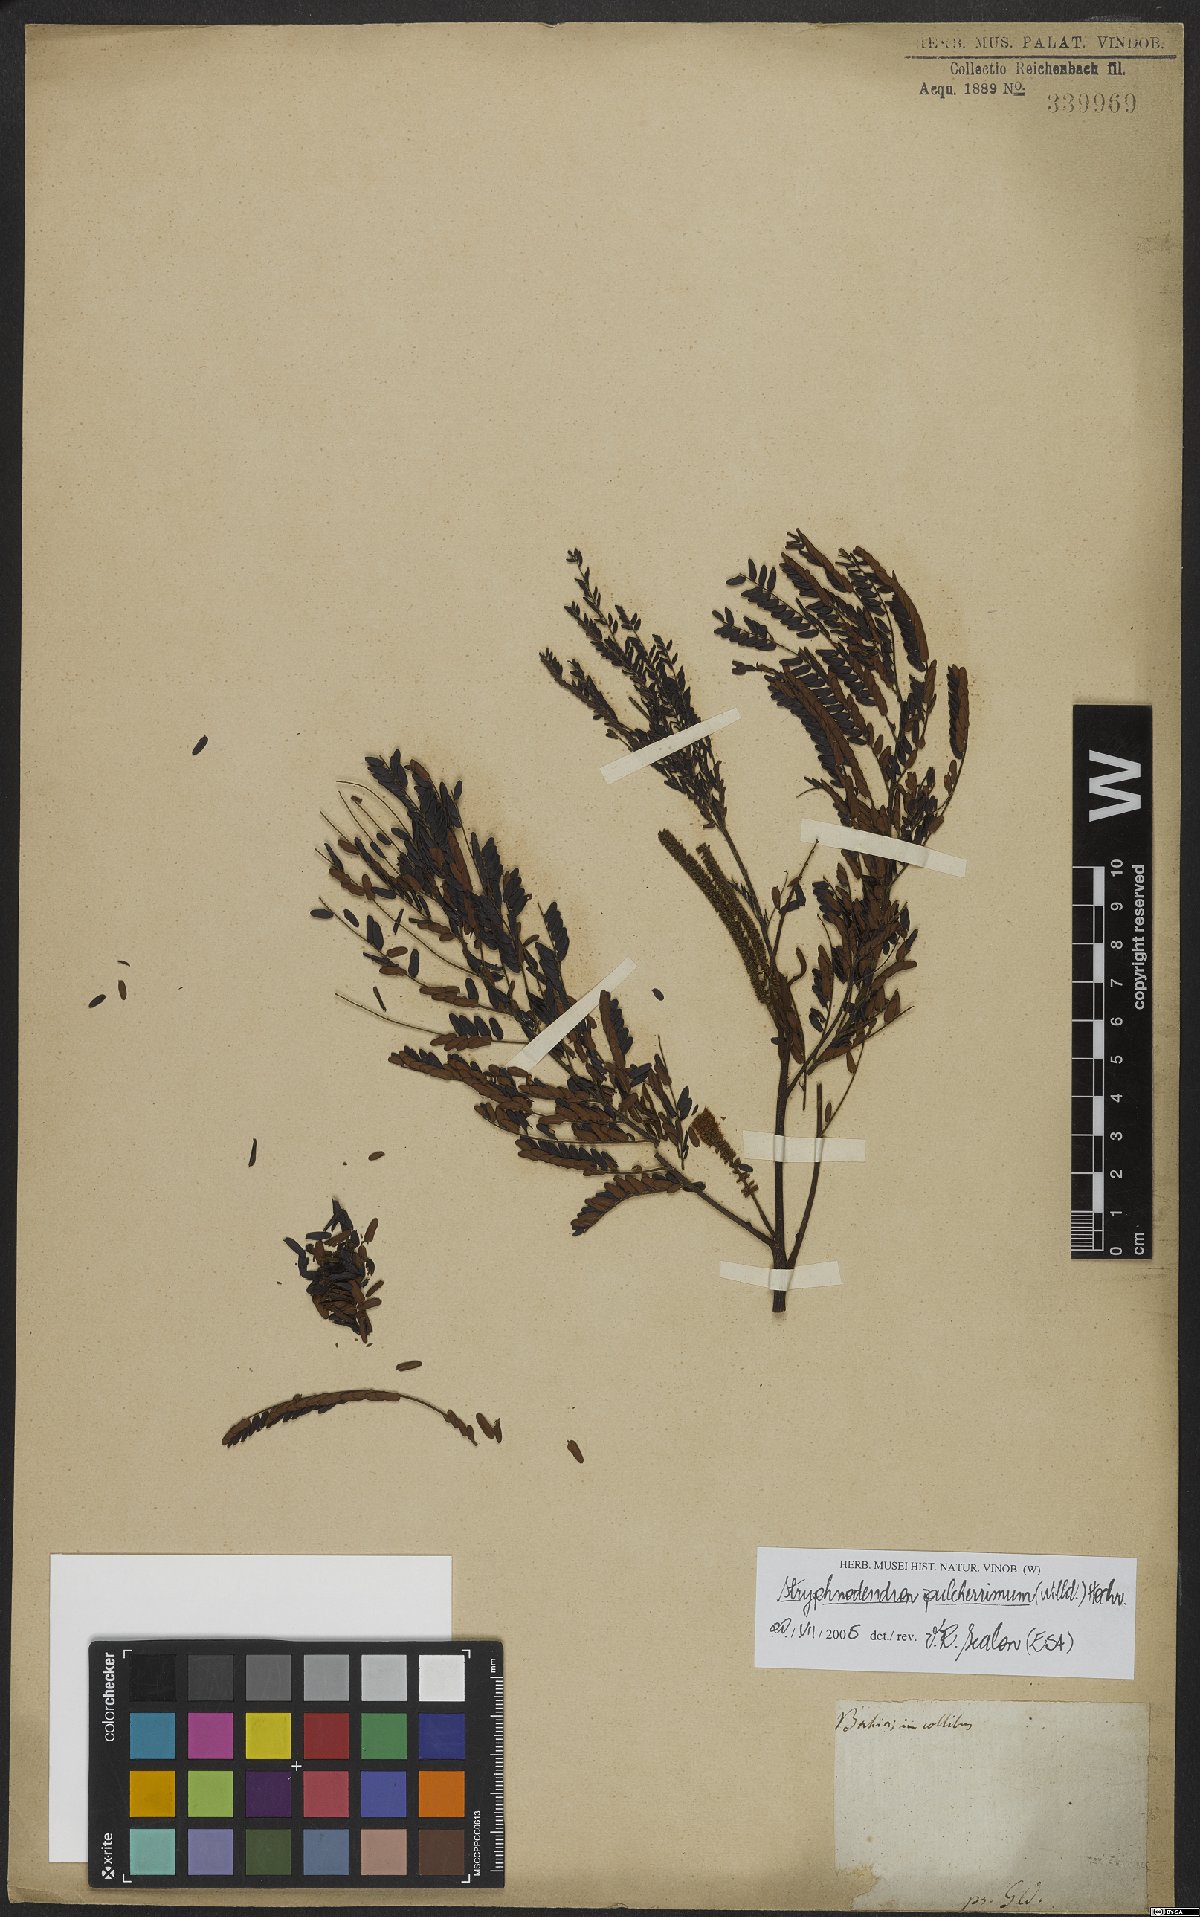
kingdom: Plantae
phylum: Tracheophyta
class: Magnoliopsida
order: Fabales
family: Fabaceae
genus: Stryphnodendron
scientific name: Stryphnodendron pulcherrimum
